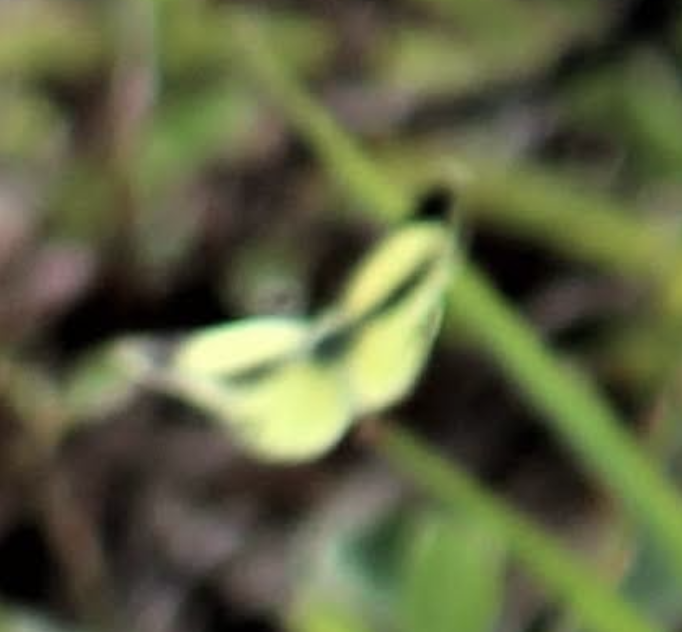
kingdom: Animalia
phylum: Arthropoda
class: Insecta
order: Lepidoptera
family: Pieridae
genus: Nathalis
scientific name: Nathalis iole
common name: Dainty Sulphur
